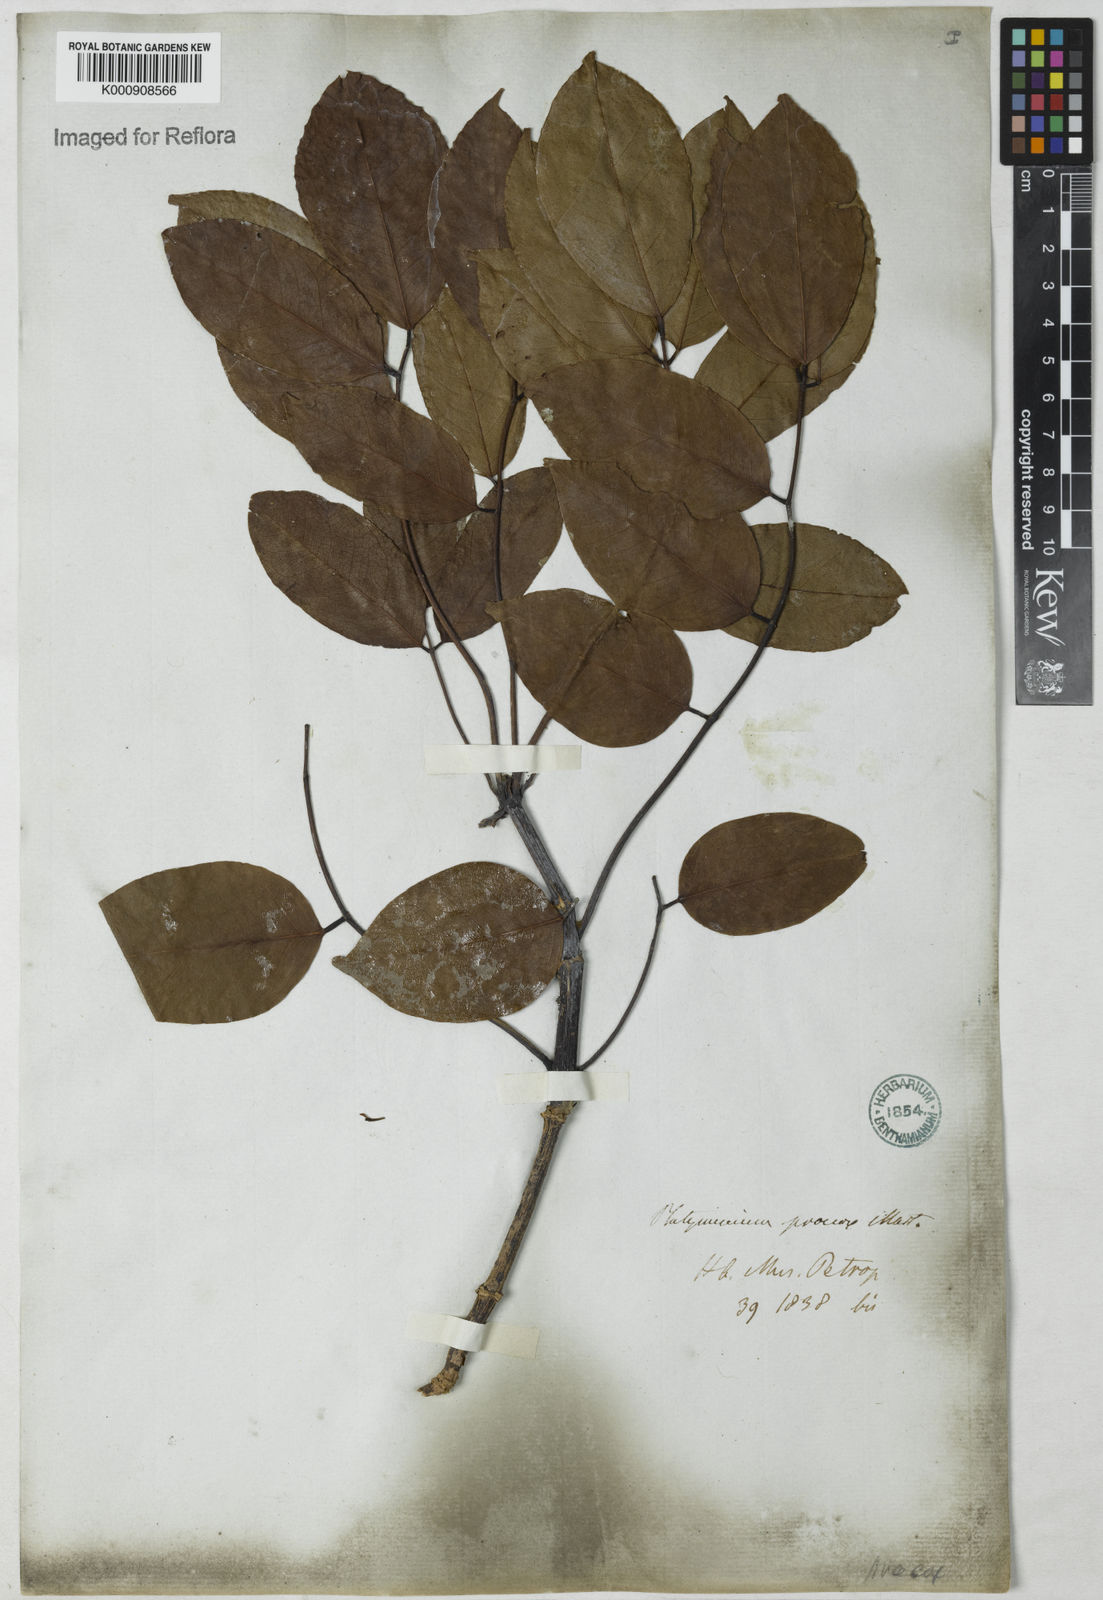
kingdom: Plantae
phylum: Tracheophyta
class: Magnoliopsida
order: Fabales
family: Fabaceae
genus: Platymiscium
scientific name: Platymiscium
